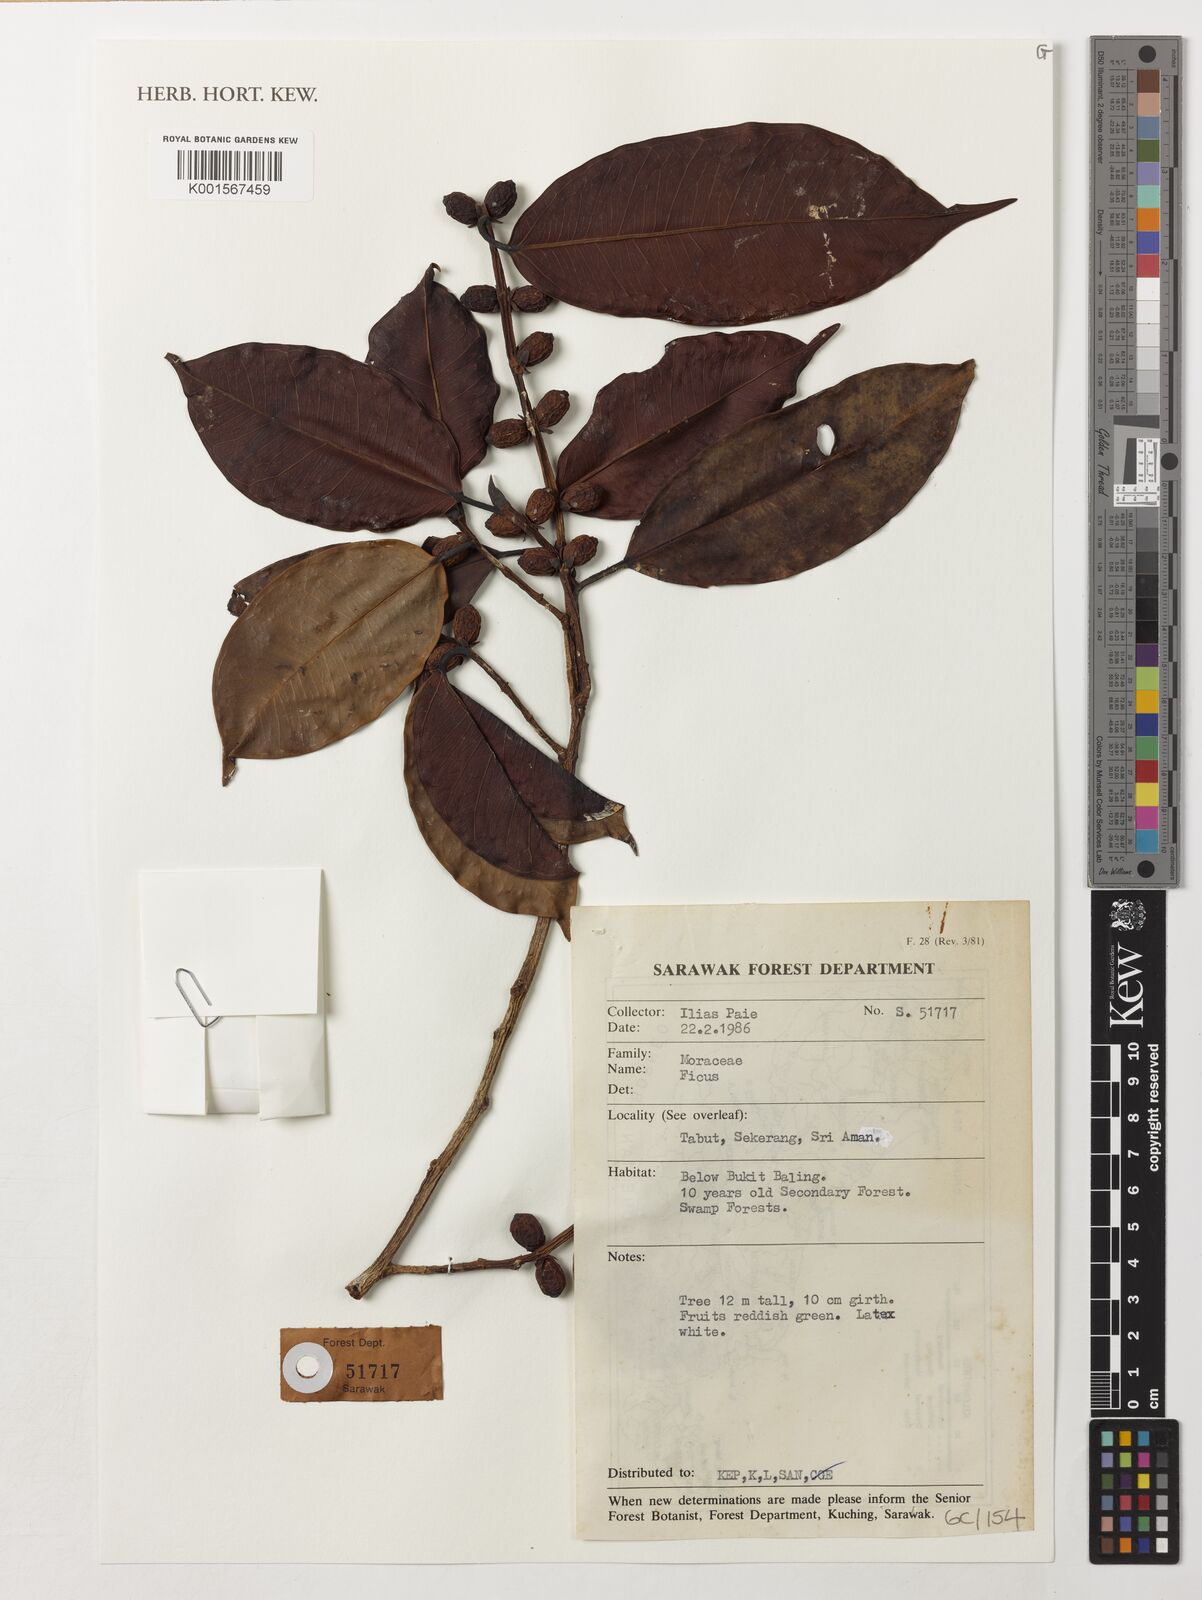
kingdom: Plantae
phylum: Tracheophyta
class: Magnoliopsida
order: Rosales
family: Moraceae
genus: Ficus
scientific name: Ficus
